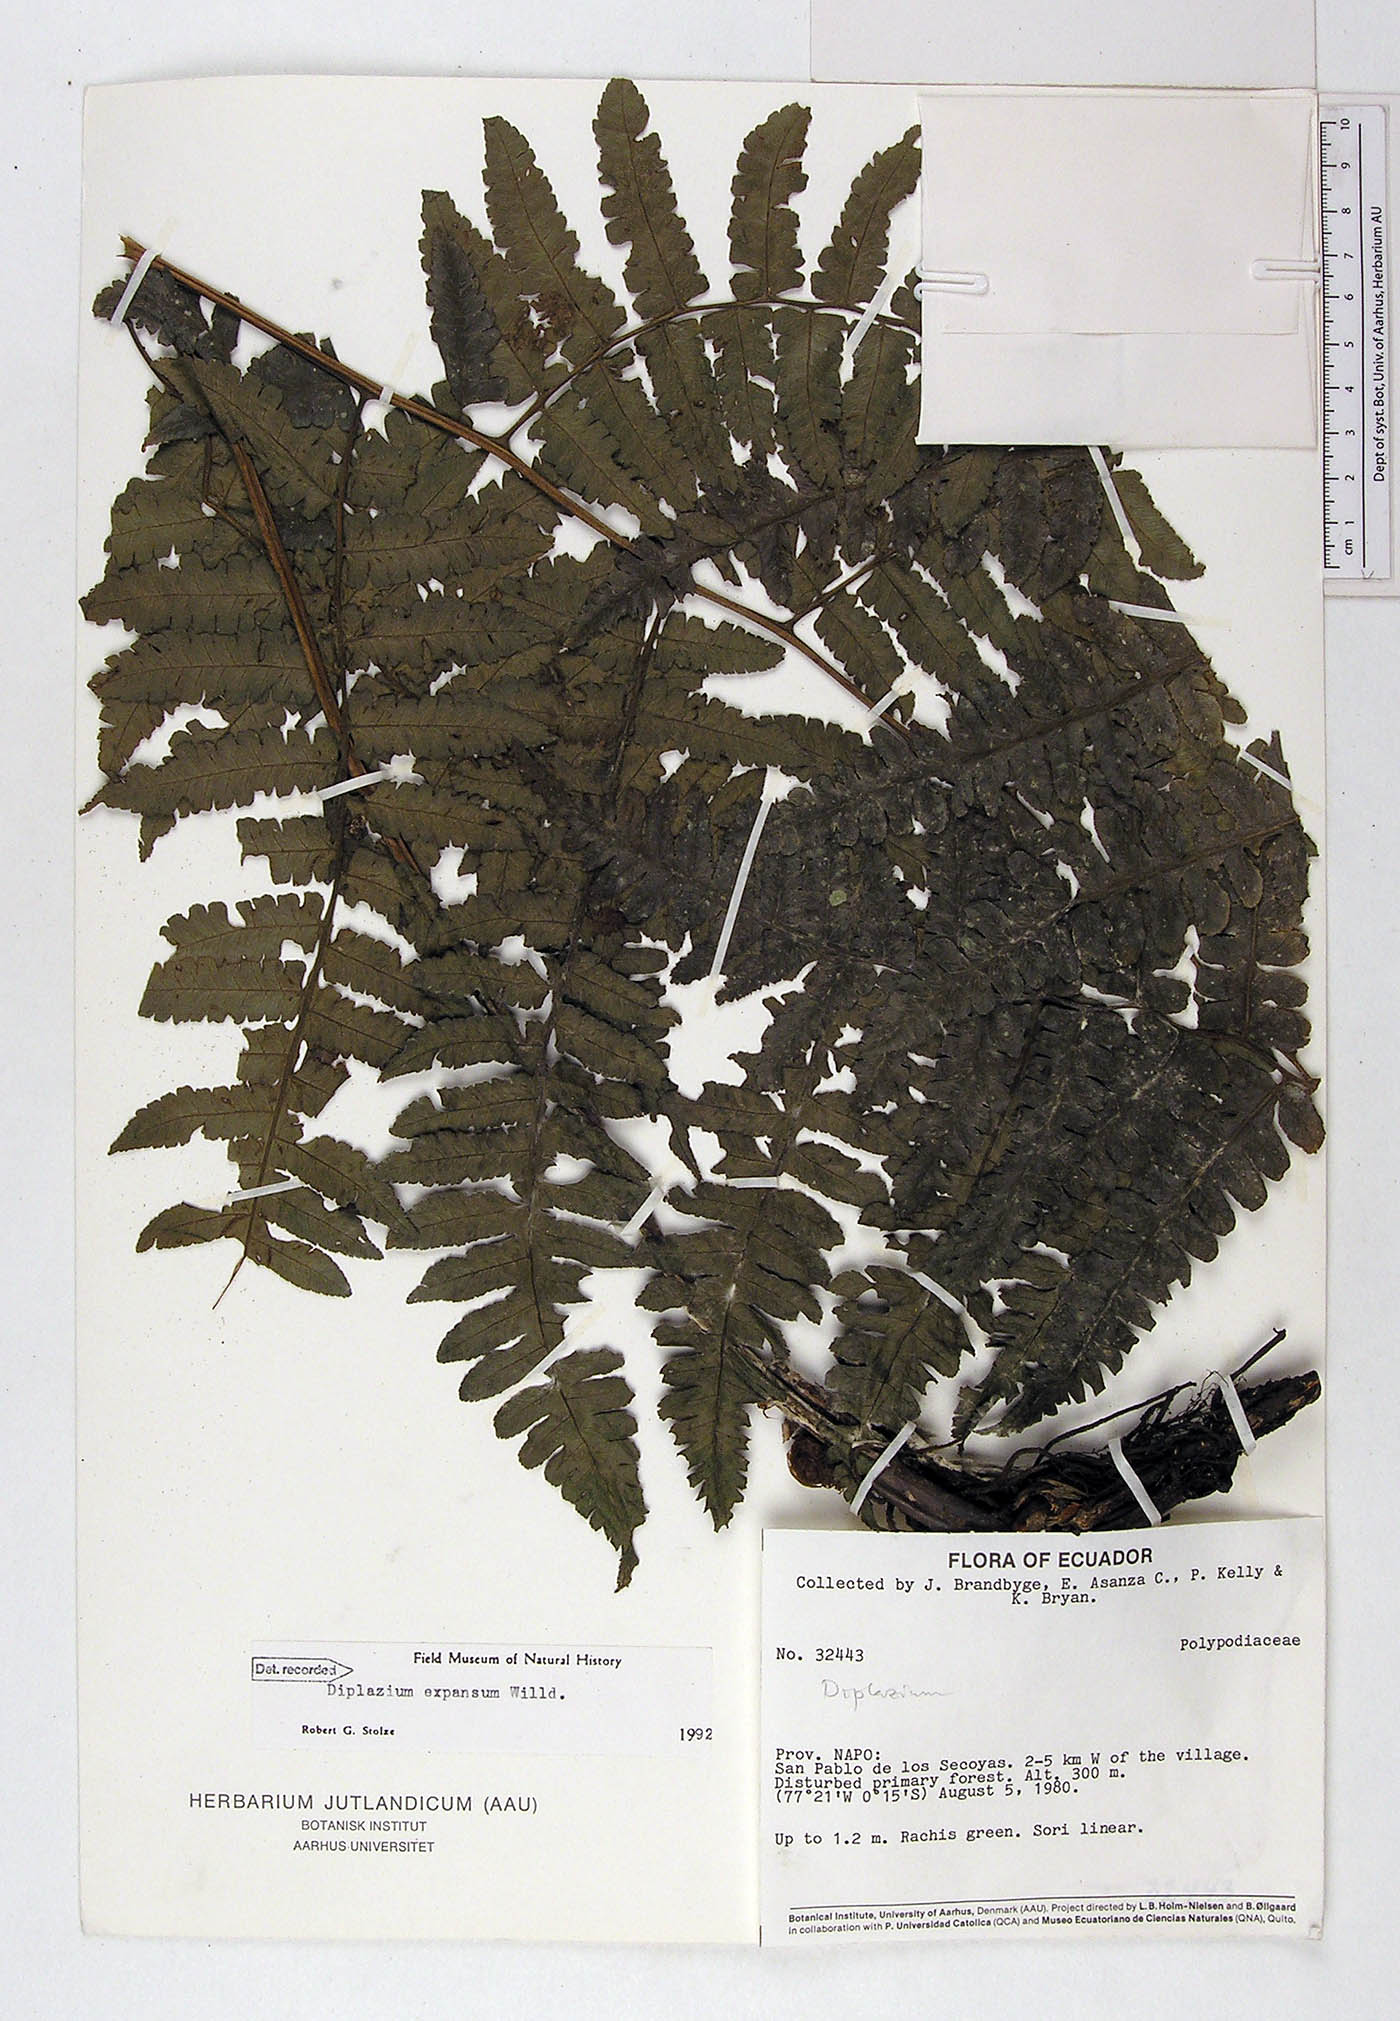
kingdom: Plantae
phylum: Tracheophyta
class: Polypodiopsida
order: Polypodiales
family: Athyriaceae
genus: Diplazium
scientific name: Diplazium expansum
